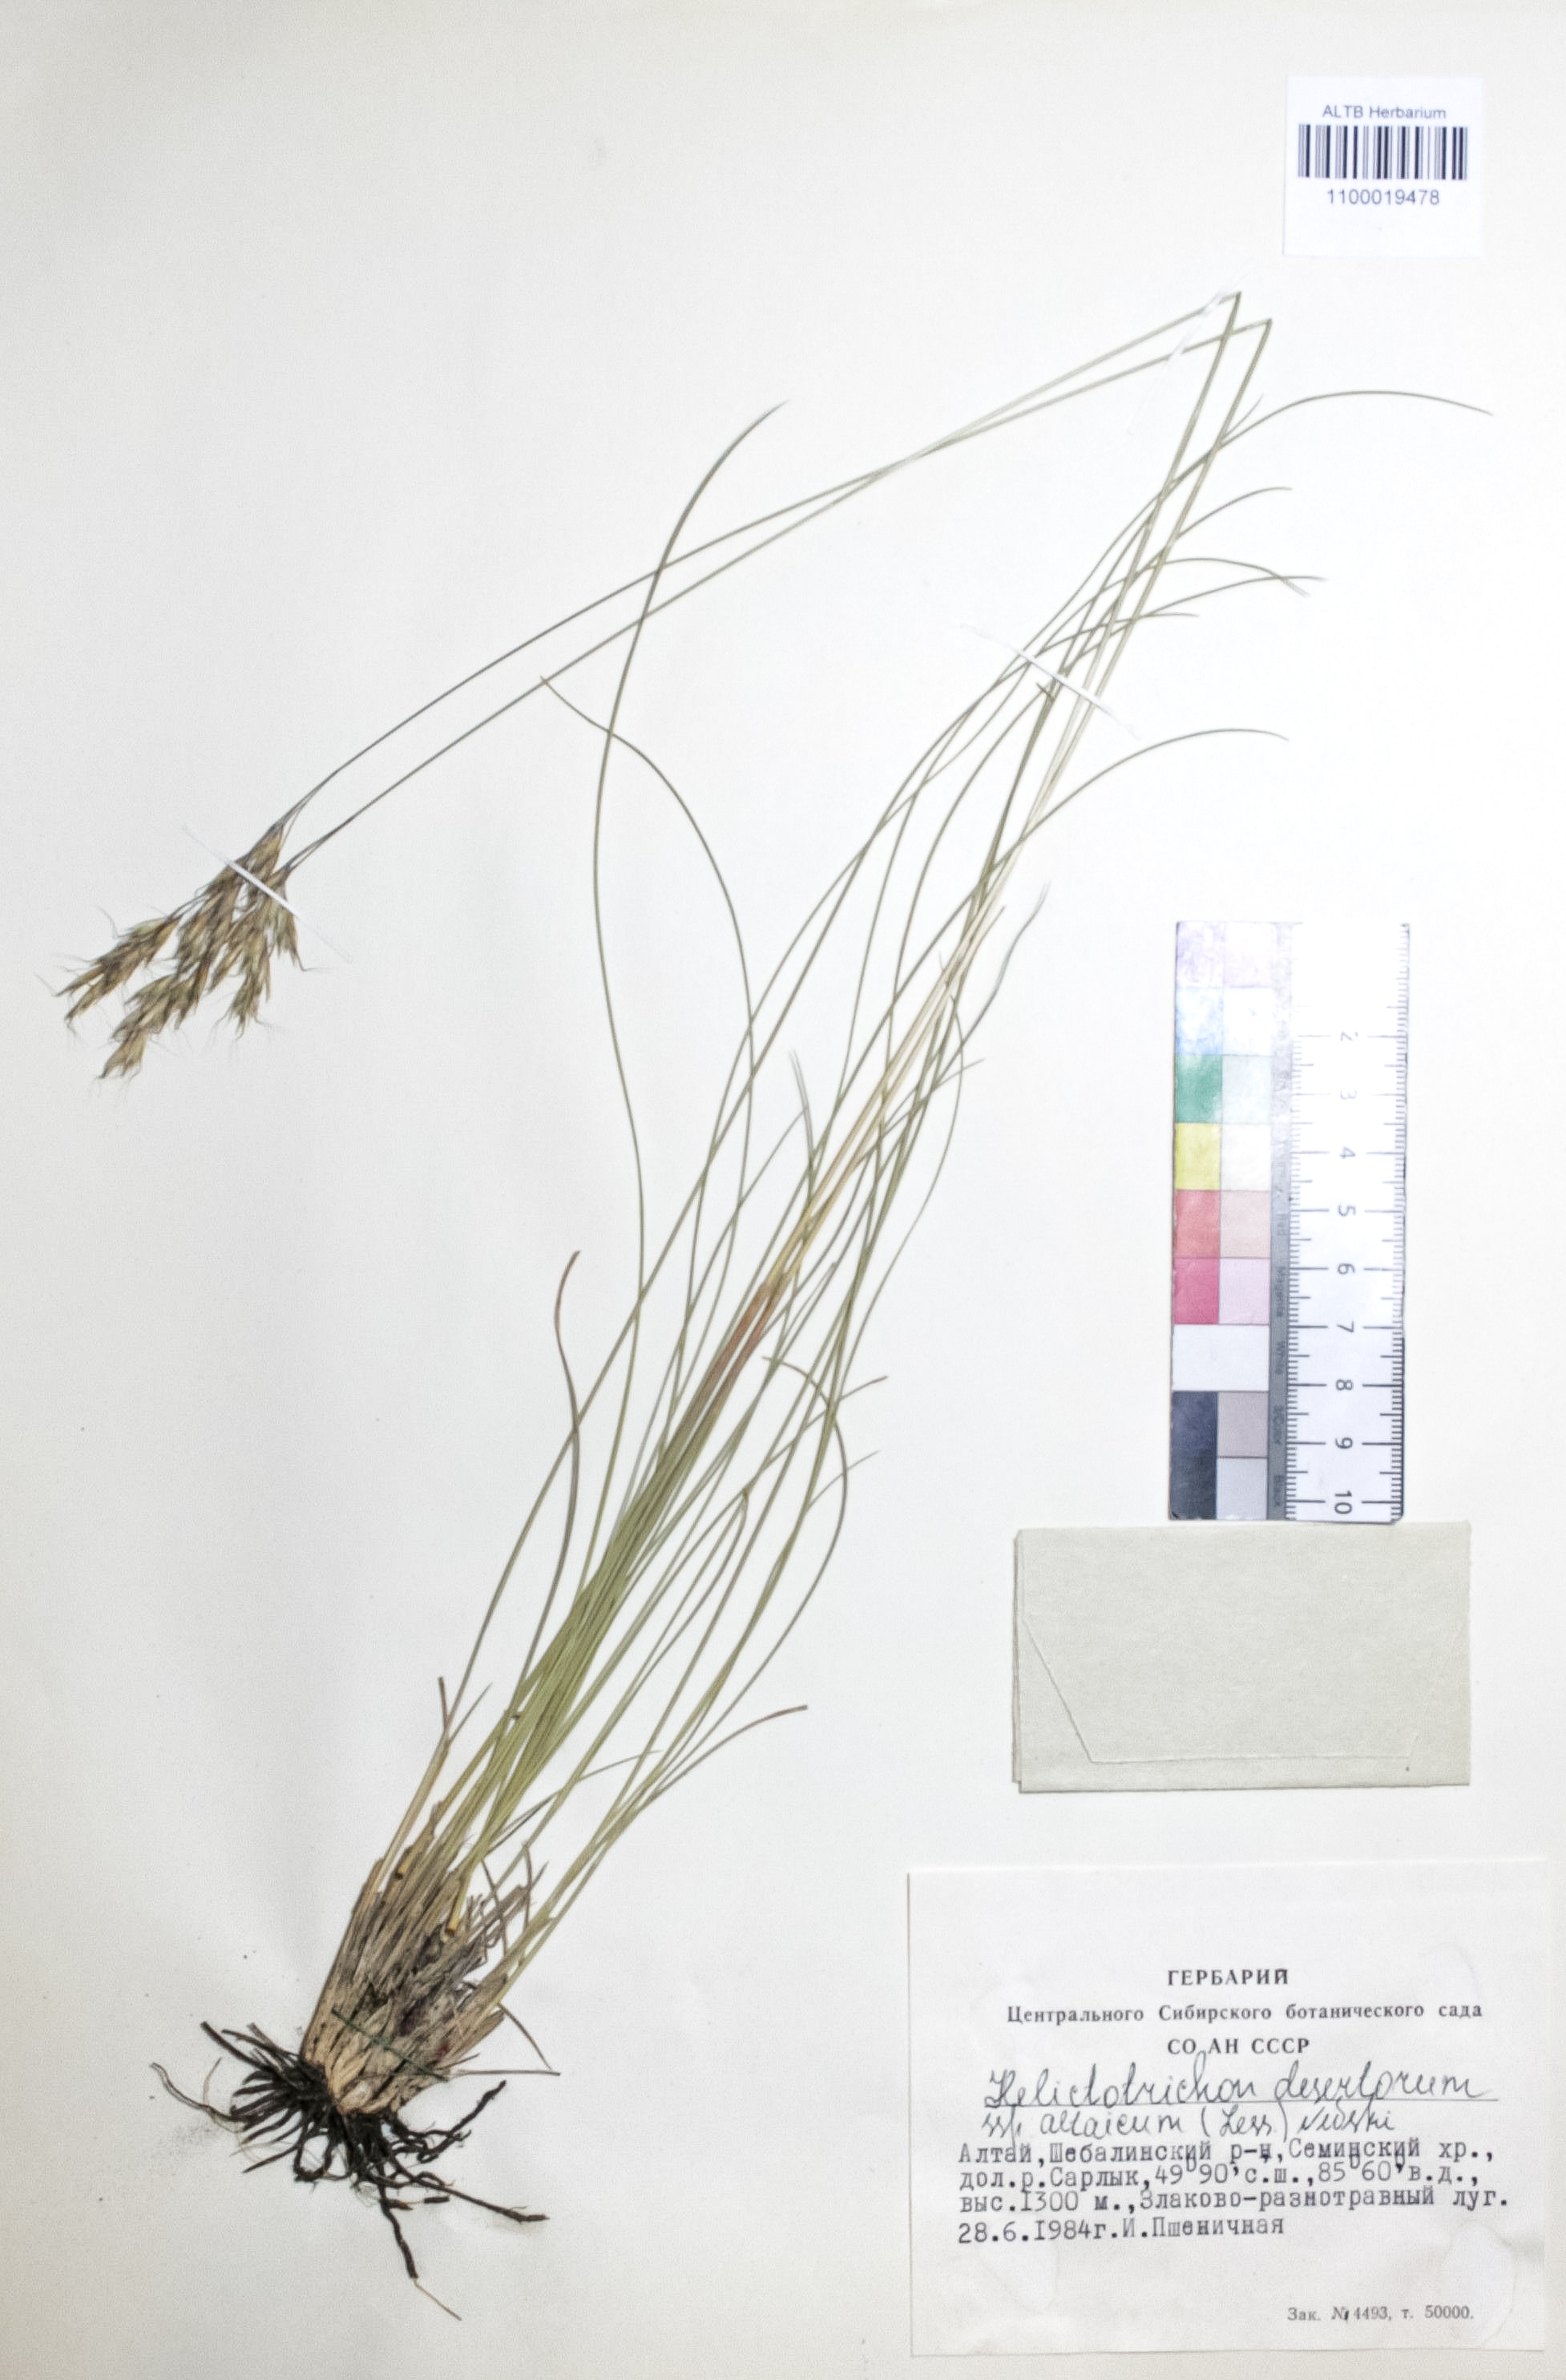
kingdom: Plantae
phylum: Tracheophyta
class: Liliopsida
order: Poales
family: Poaceae
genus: Helictotrichon
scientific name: Helictotrichon desertorum
